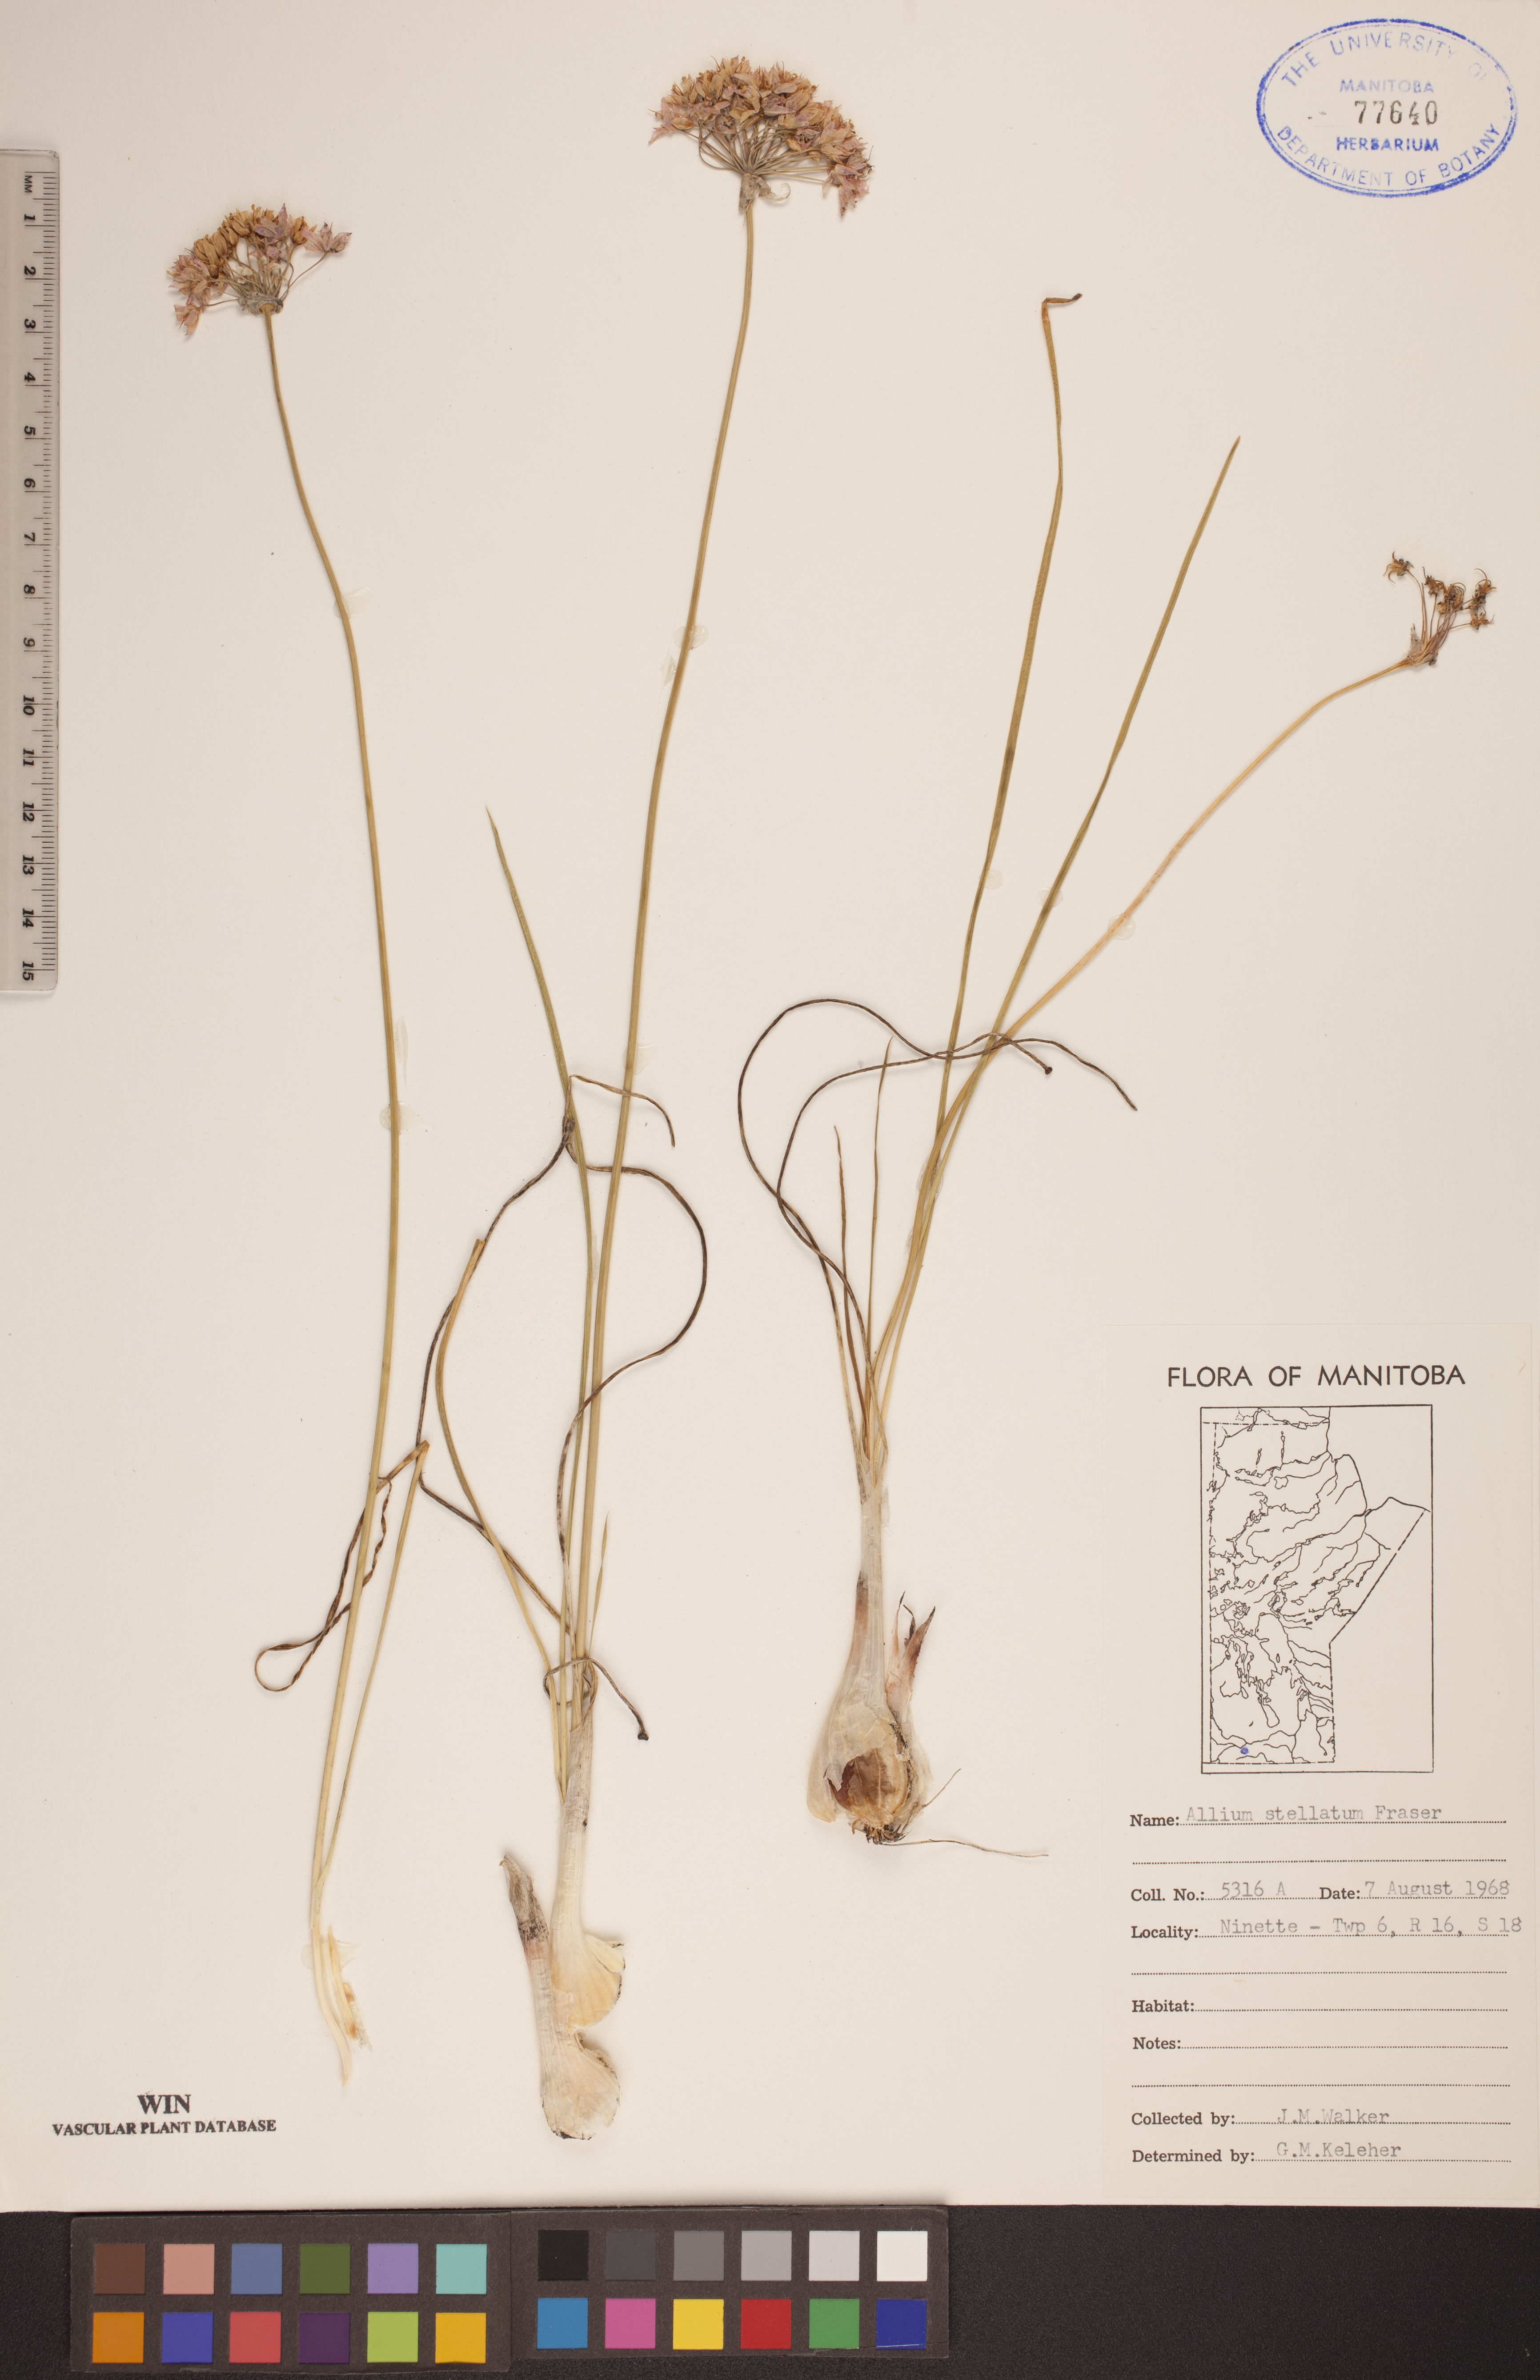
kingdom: Plantae
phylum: Tracheophyta
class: Liliopsida
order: Asparagales
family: Amaryllidaceae
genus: Allium
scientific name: Allium stellatum
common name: Autumn onion
